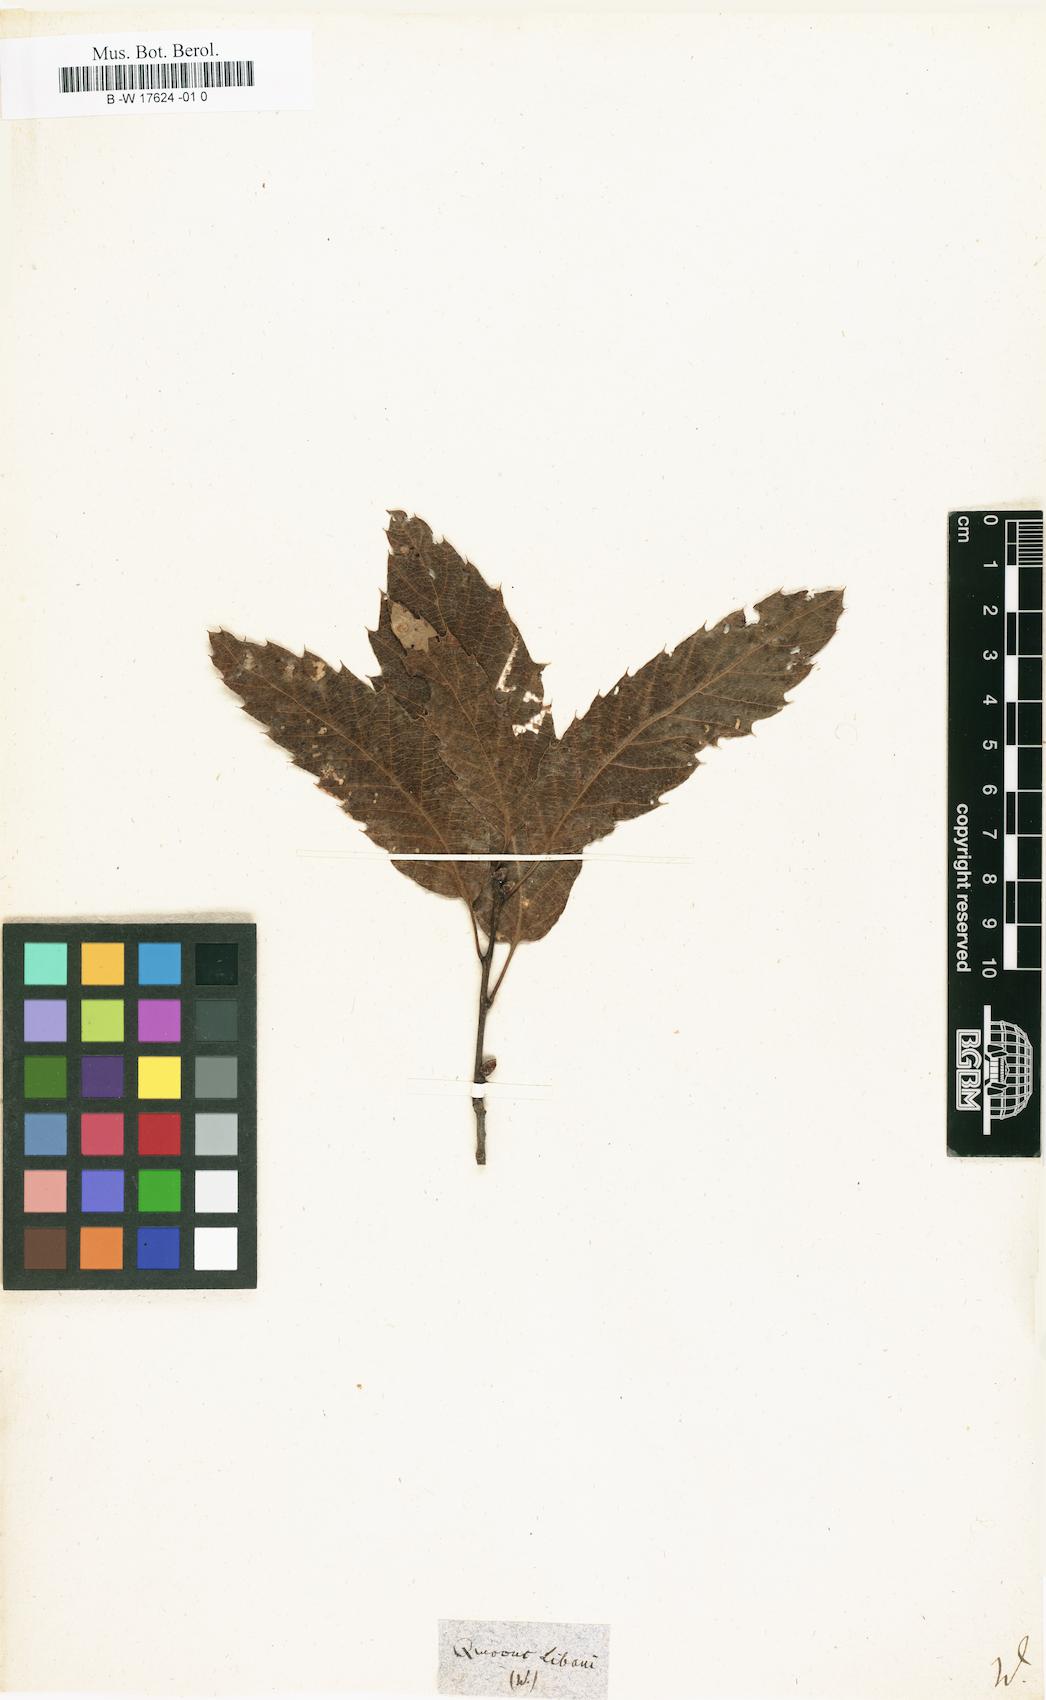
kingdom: Plantae
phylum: Tracheophyta
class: Magnoliopsida
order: Fagales
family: Fagaceae
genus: Quercus
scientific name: Quercus
